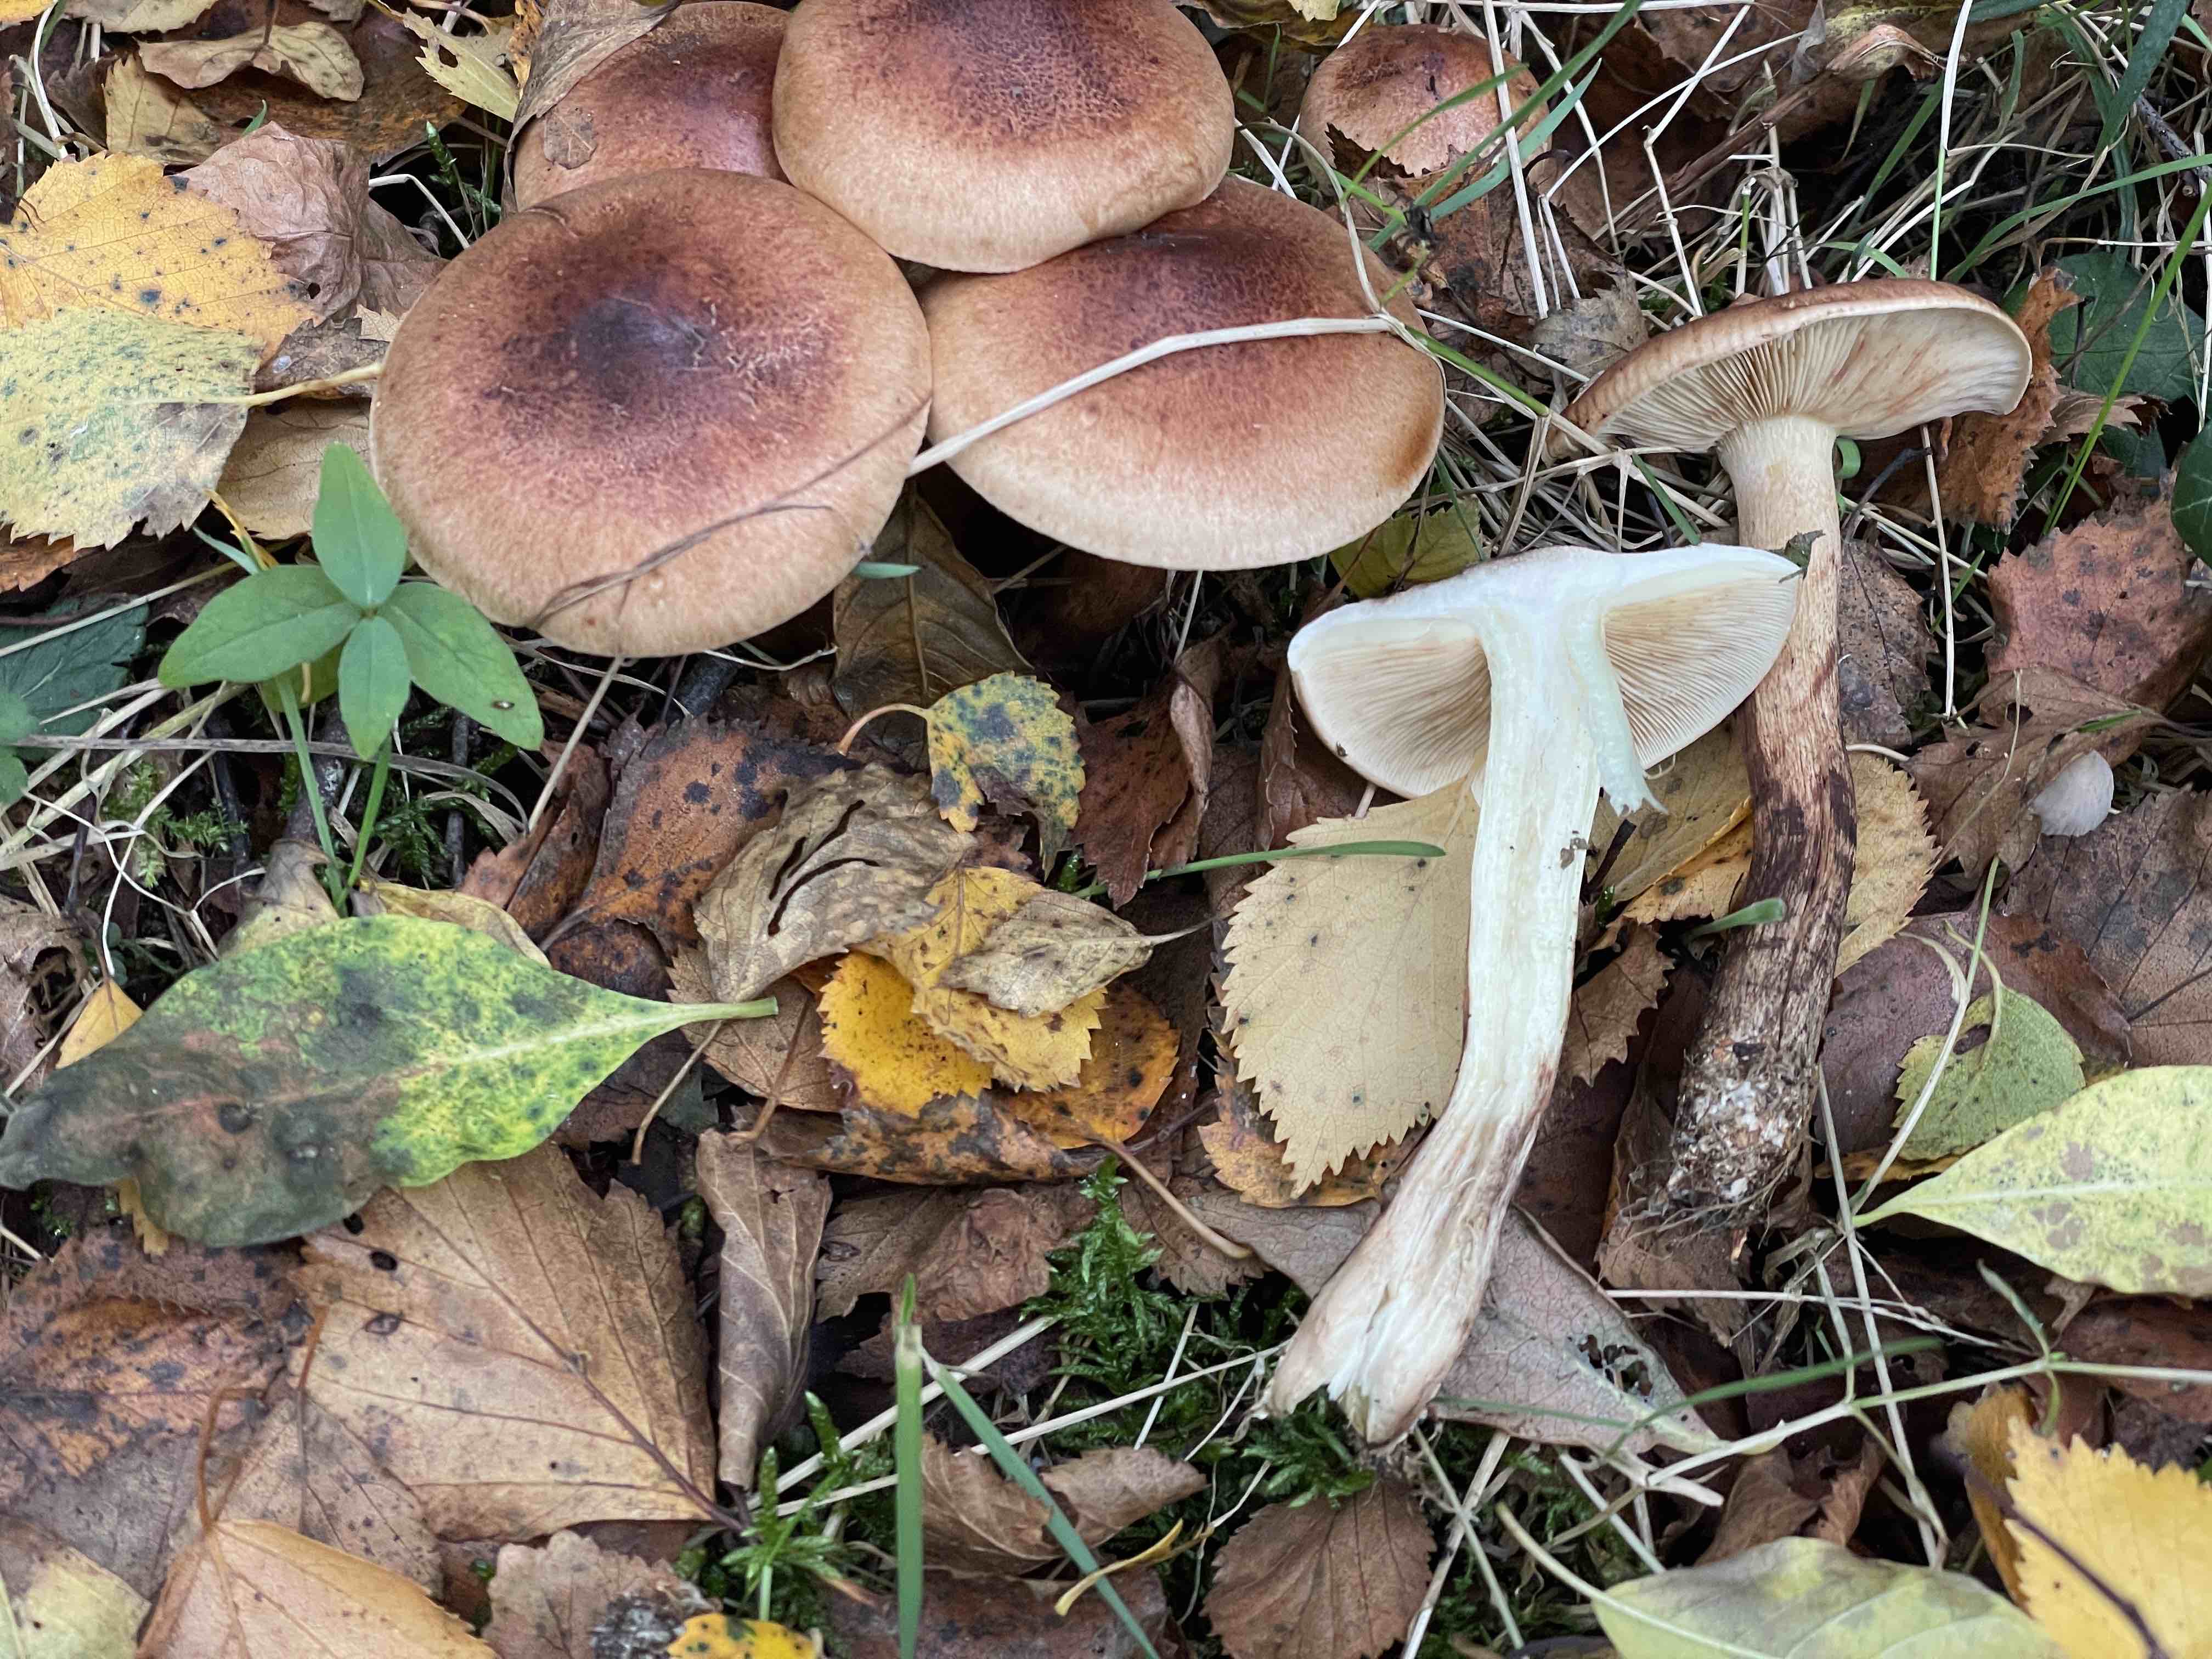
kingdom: Fungi
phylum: Basidiomycota
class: Agaricomycetes
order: Agaricales
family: Tricholomataceae
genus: Tricholoma
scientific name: Tricholoma fulvum
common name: birke-ridderhat
